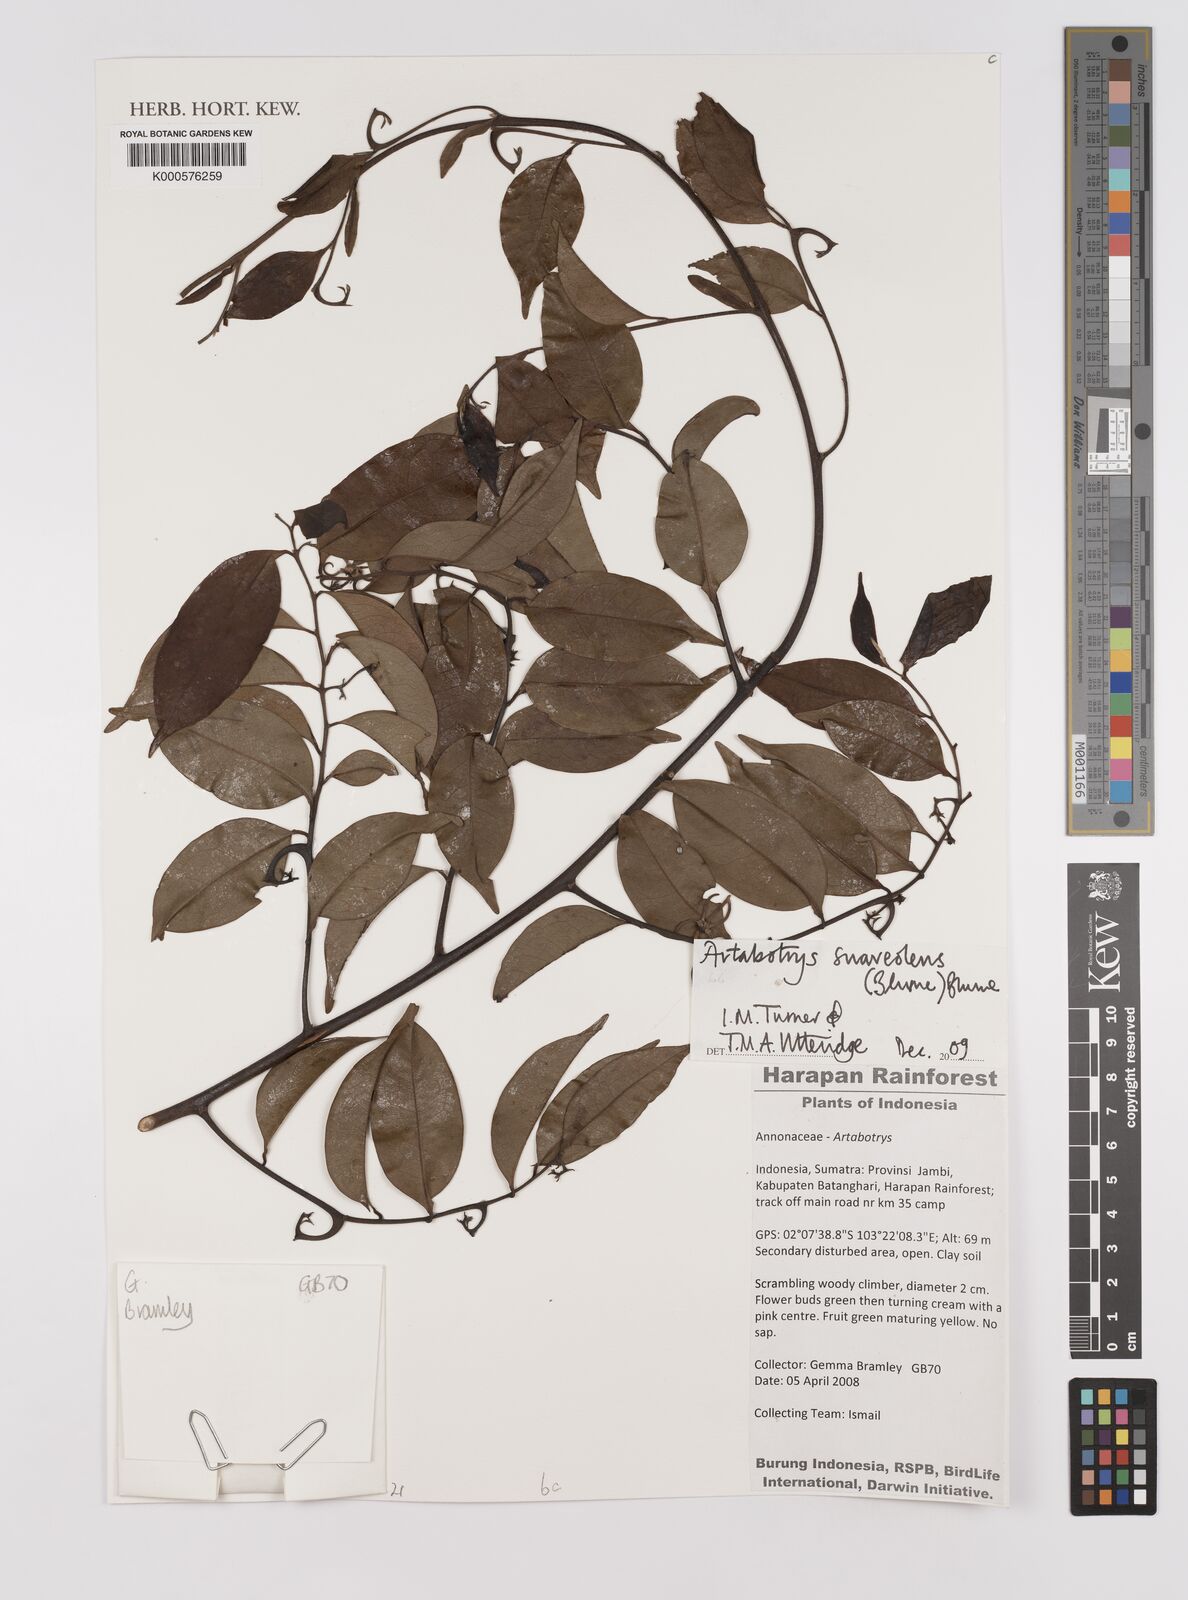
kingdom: Plantae
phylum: Tracheophyta
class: Magnoliopsida
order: Magnoliales
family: Annonaceae
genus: Artabotrys
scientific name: Artabotrys suaveolens
